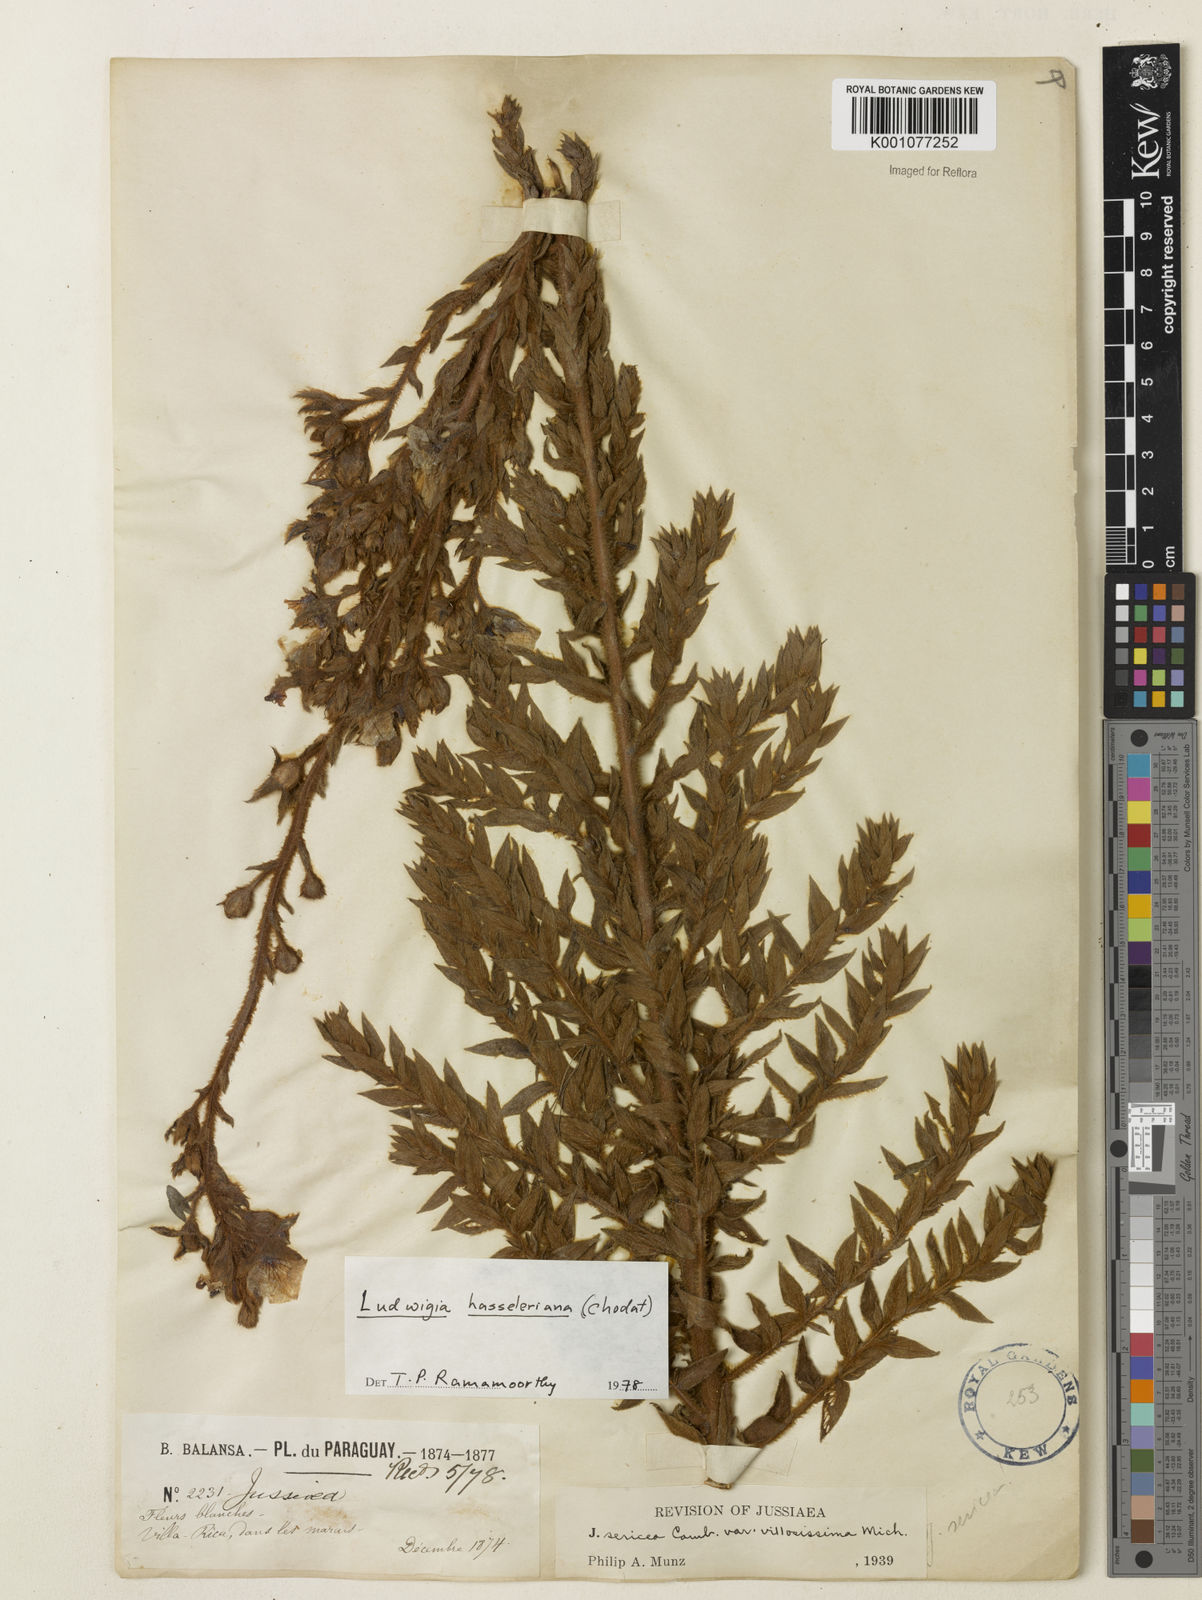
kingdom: Plantae
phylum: Tracheophyta
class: Magnoliopsida
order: Myrtales
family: Onagraceae
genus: Ludwigia
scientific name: Ludwigia hassleriana
